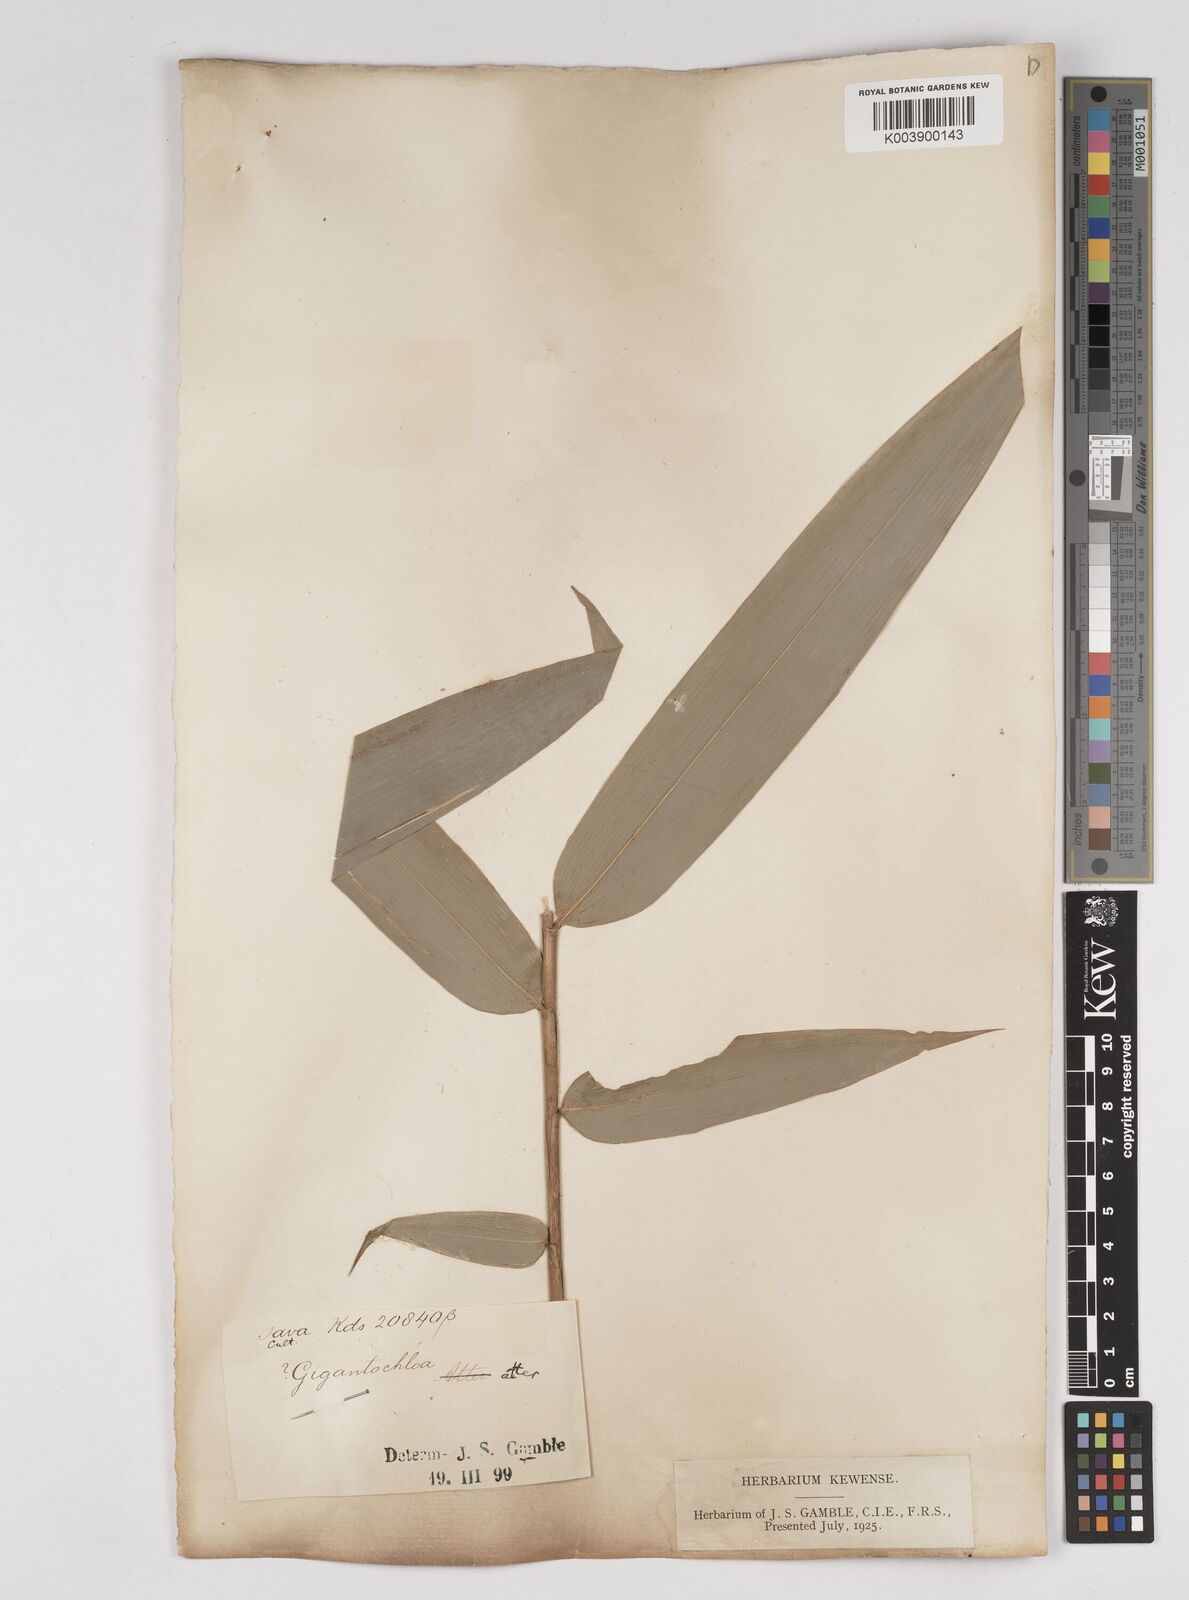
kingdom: Plantae
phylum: Tracheophyta
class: Liliopsida
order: Poales
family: Poaceae
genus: Gigantochloa
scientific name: Gigantochloa atter
